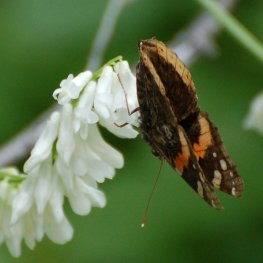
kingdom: Animalia
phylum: Arthropoda
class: Insecta
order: Lepidoptera
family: Nymphalidae
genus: Vanessa
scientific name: Vanessa atalanta
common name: Red Admiral
